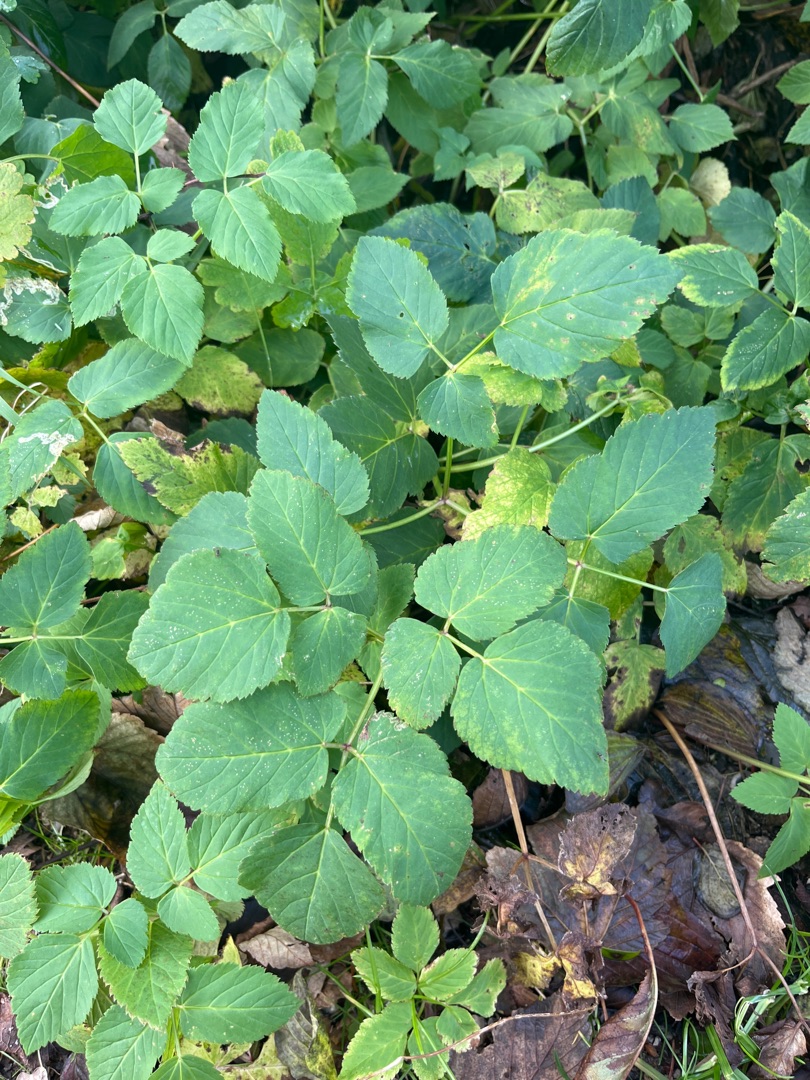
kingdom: Plantae
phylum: Tracheophyta
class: Magnoliopsida
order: Apiales
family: Apiaceae
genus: Aegopodium
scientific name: Aegopodium podagraria
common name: Skvalderkål
